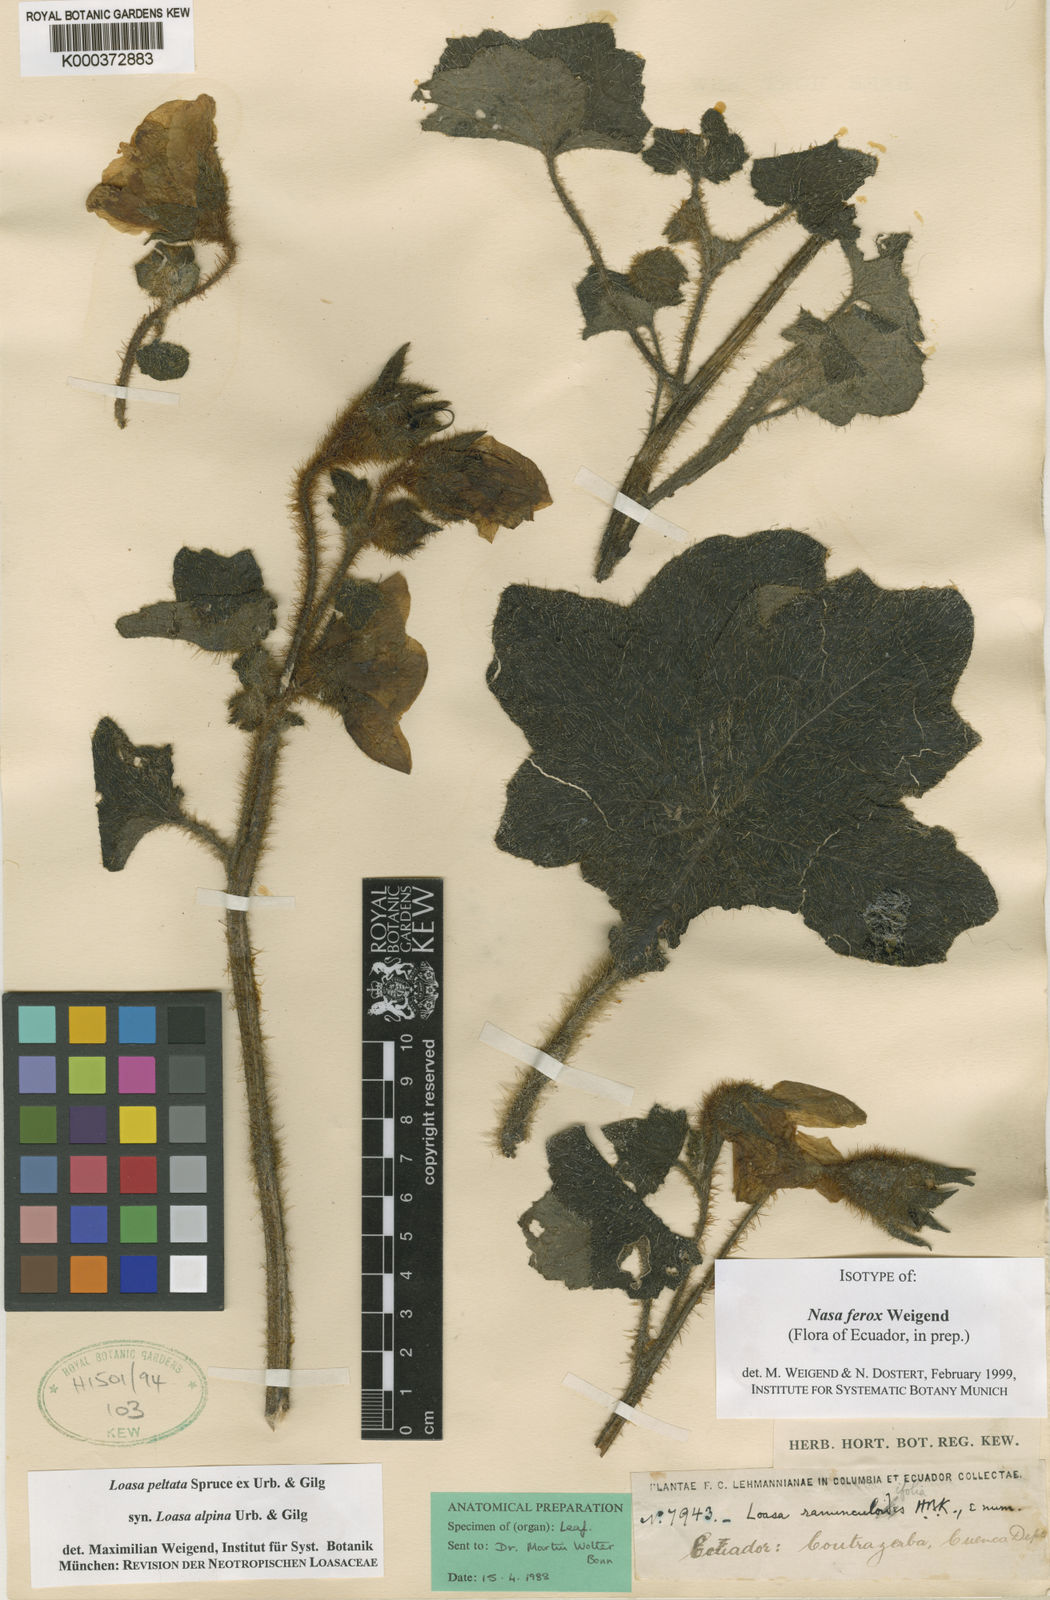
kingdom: Plantae
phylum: Tracheophyta
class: Magnoliopsida
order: Cornales
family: Loasaceae
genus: Nasa
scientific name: Nasa ferox
